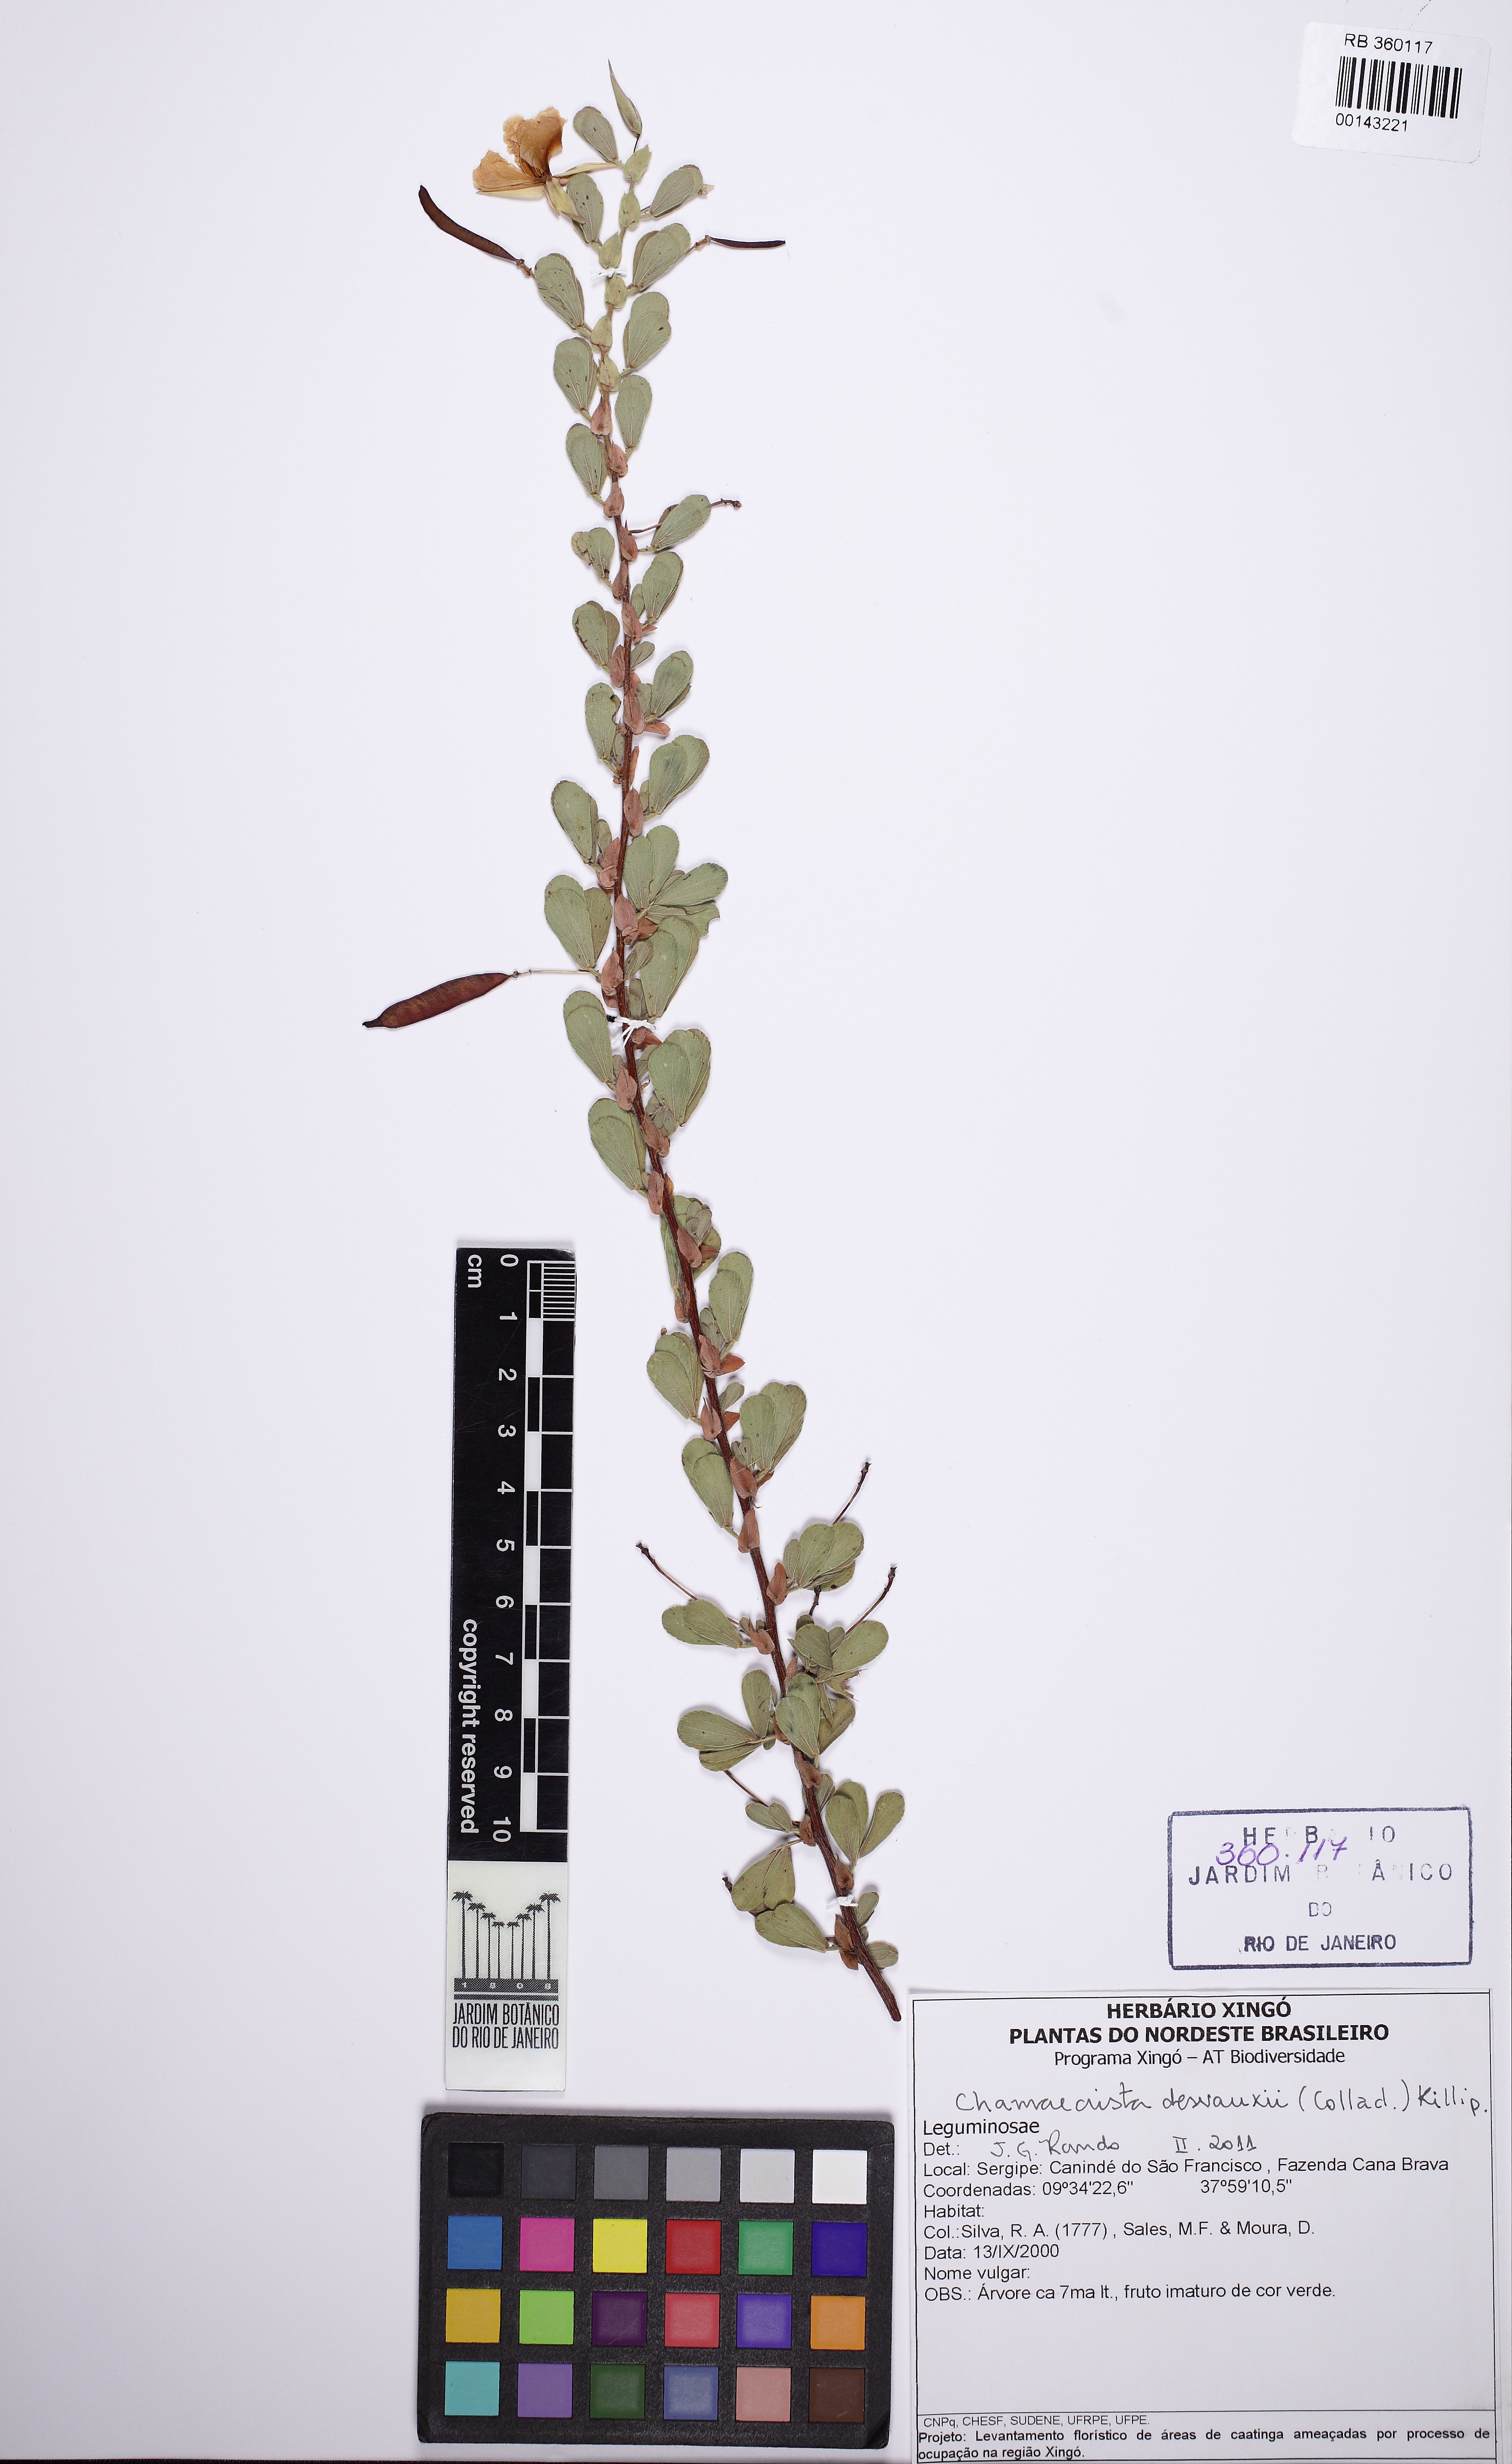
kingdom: Plantae
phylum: Tracheophyta
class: Magnoliopsida
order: Fabales
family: Fabaceae
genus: Chamaecrista
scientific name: Chamaecrista desvauxii
